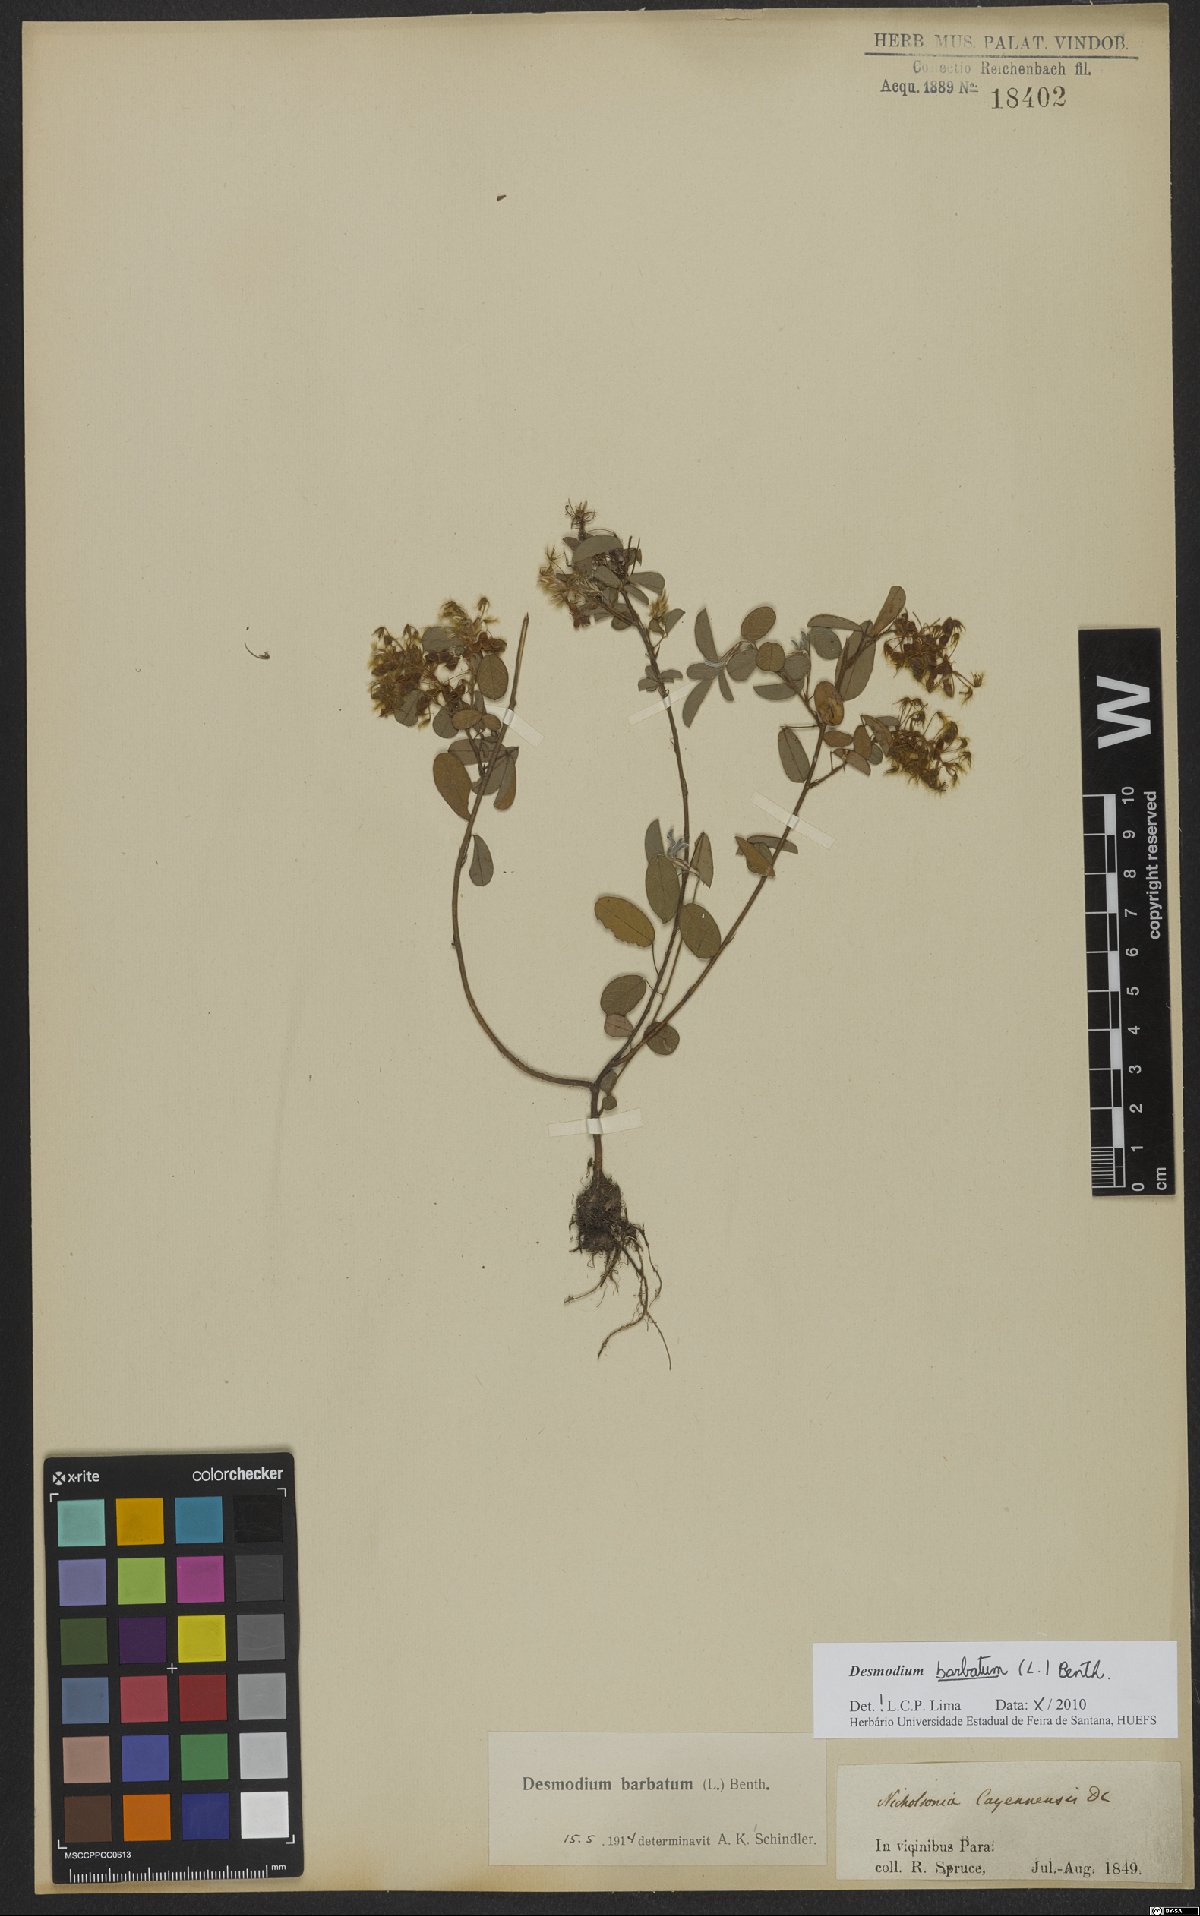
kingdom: Plantae
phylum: Tracheophyta
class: Magnoliopsida
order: Fabales
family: Fabaceae
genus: Grona
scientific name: Grona barbata
